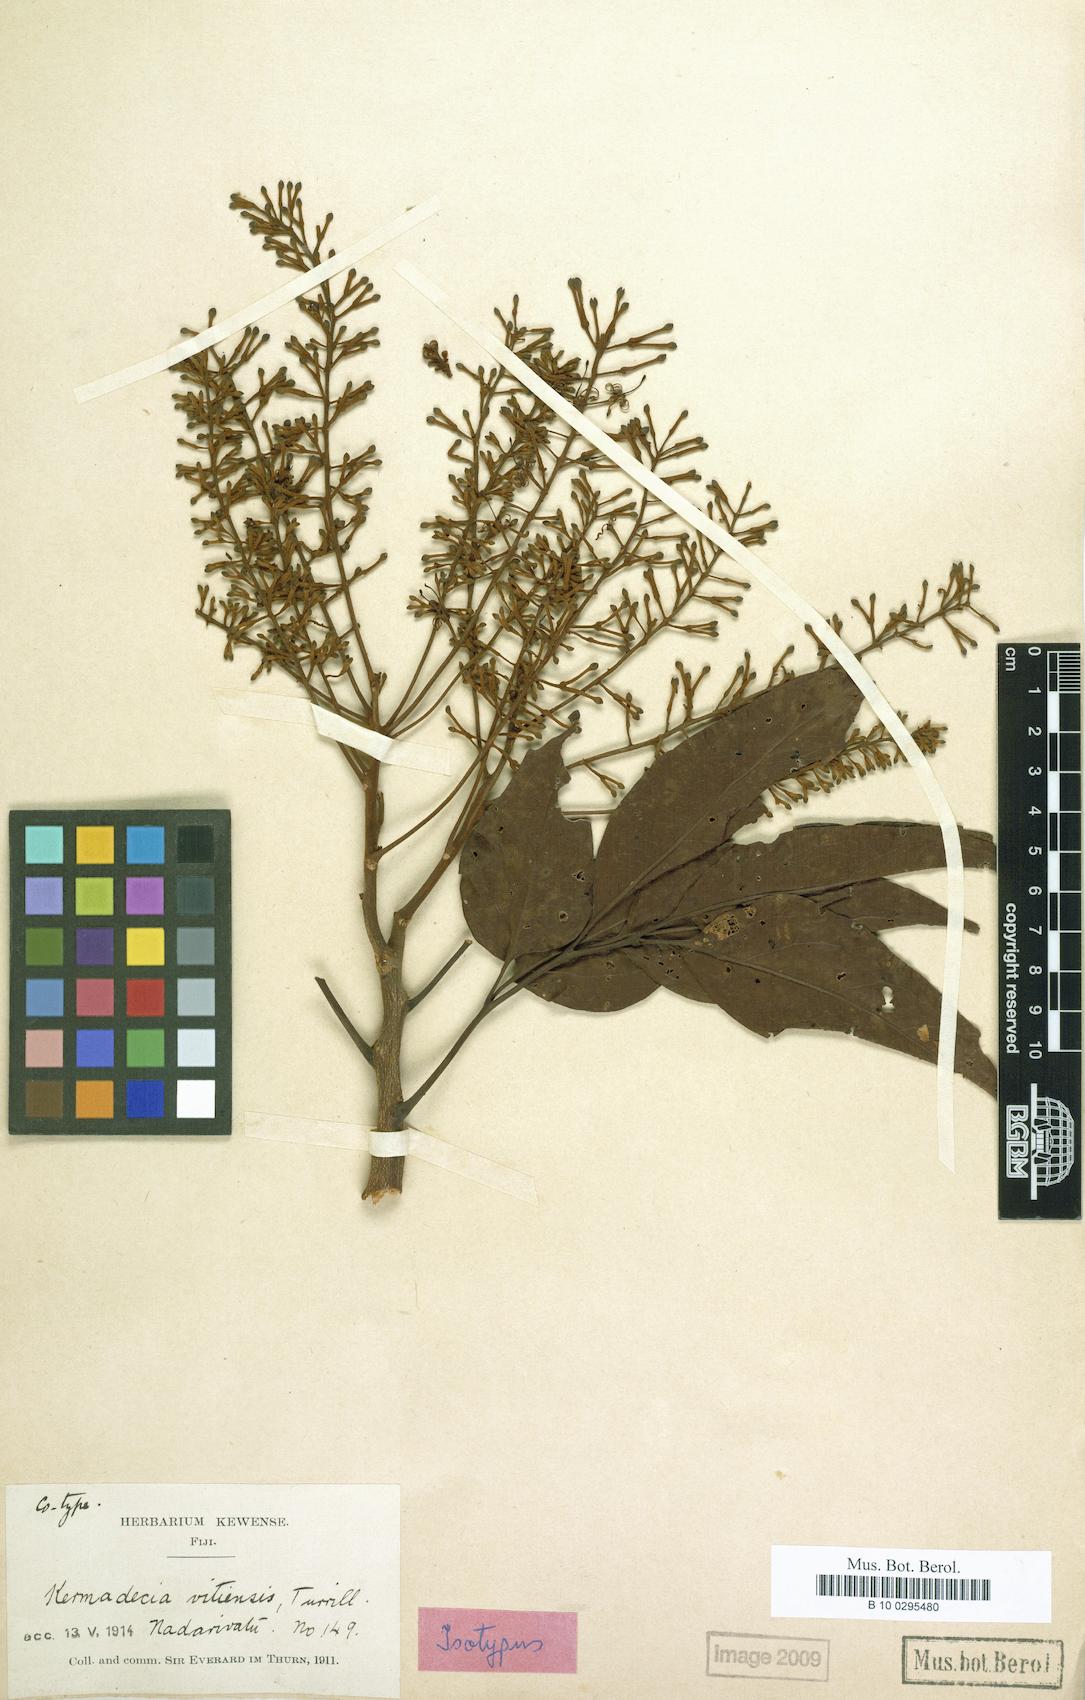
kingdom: Plantae
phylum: Tracheophyta
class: Magnoliopsida
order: Proteales
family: Proteaceae
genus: Turrillia
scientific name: Turrillia vitiensis
